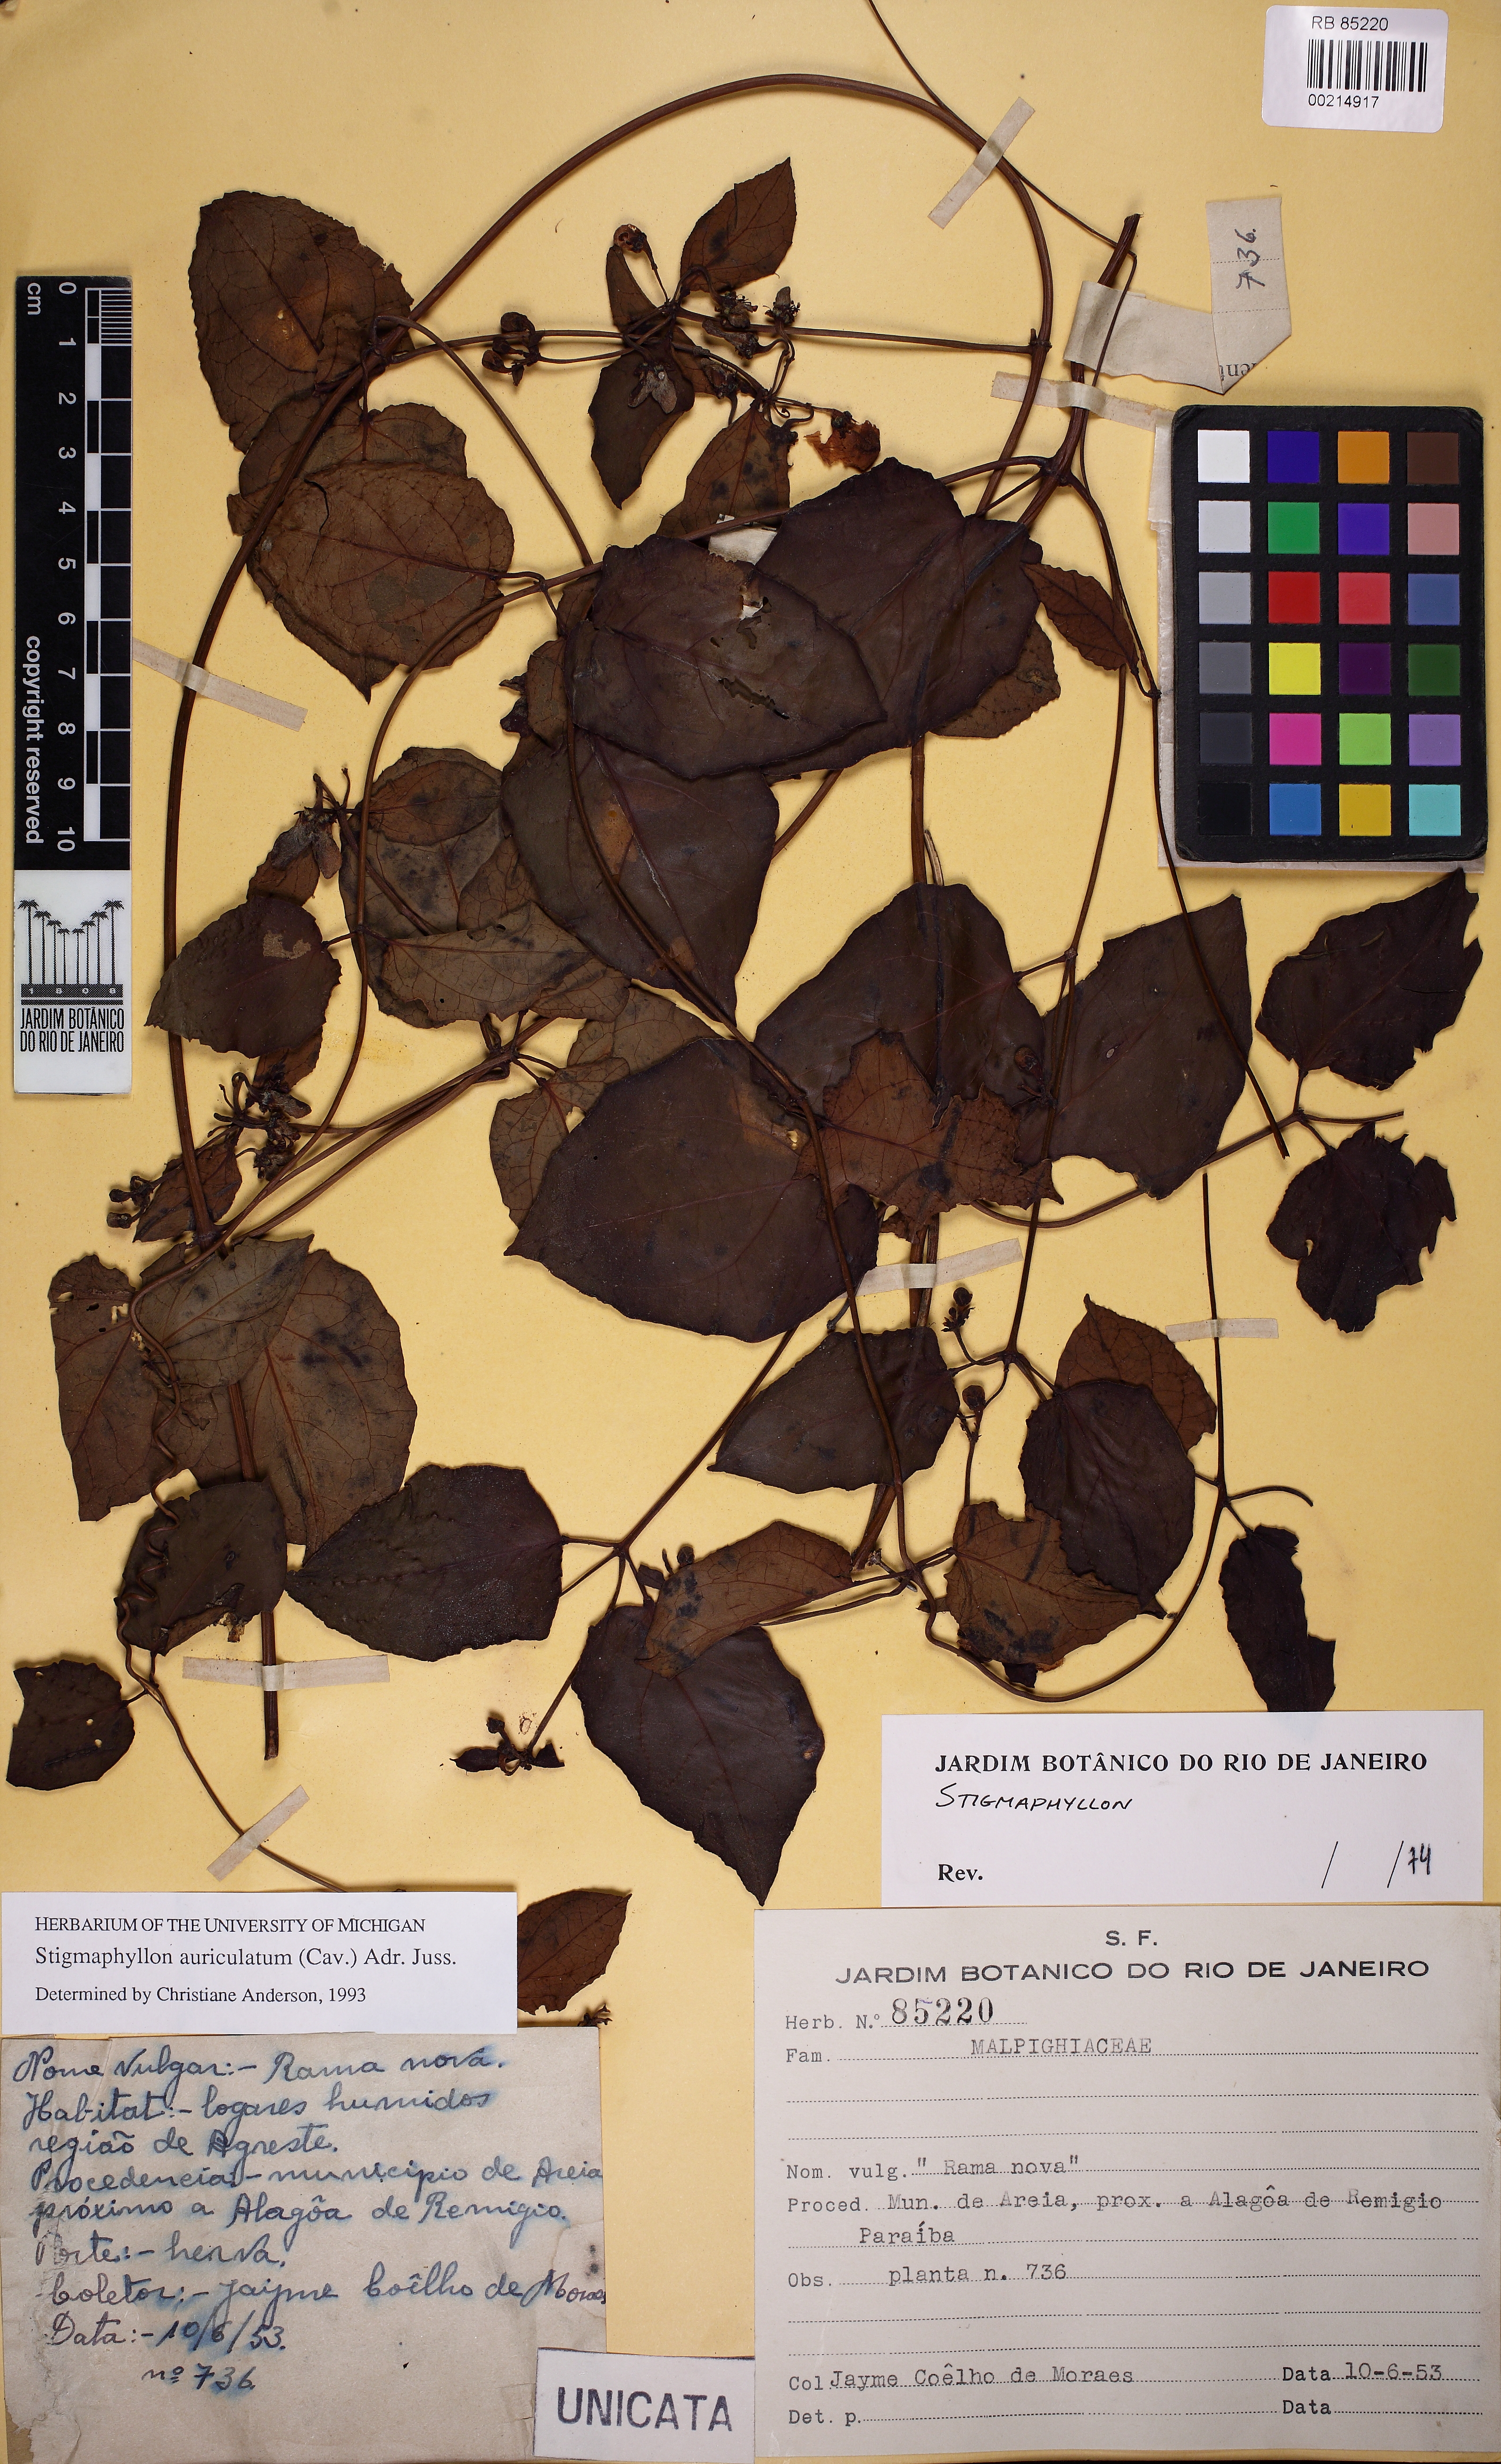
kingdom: Plantae
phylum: Tracheophyta
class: Magnoliopsida
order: Malpighiales
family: Malpighiaceae
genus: Stigmaphyllon
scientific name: Stigmaphyllon auriculatum
